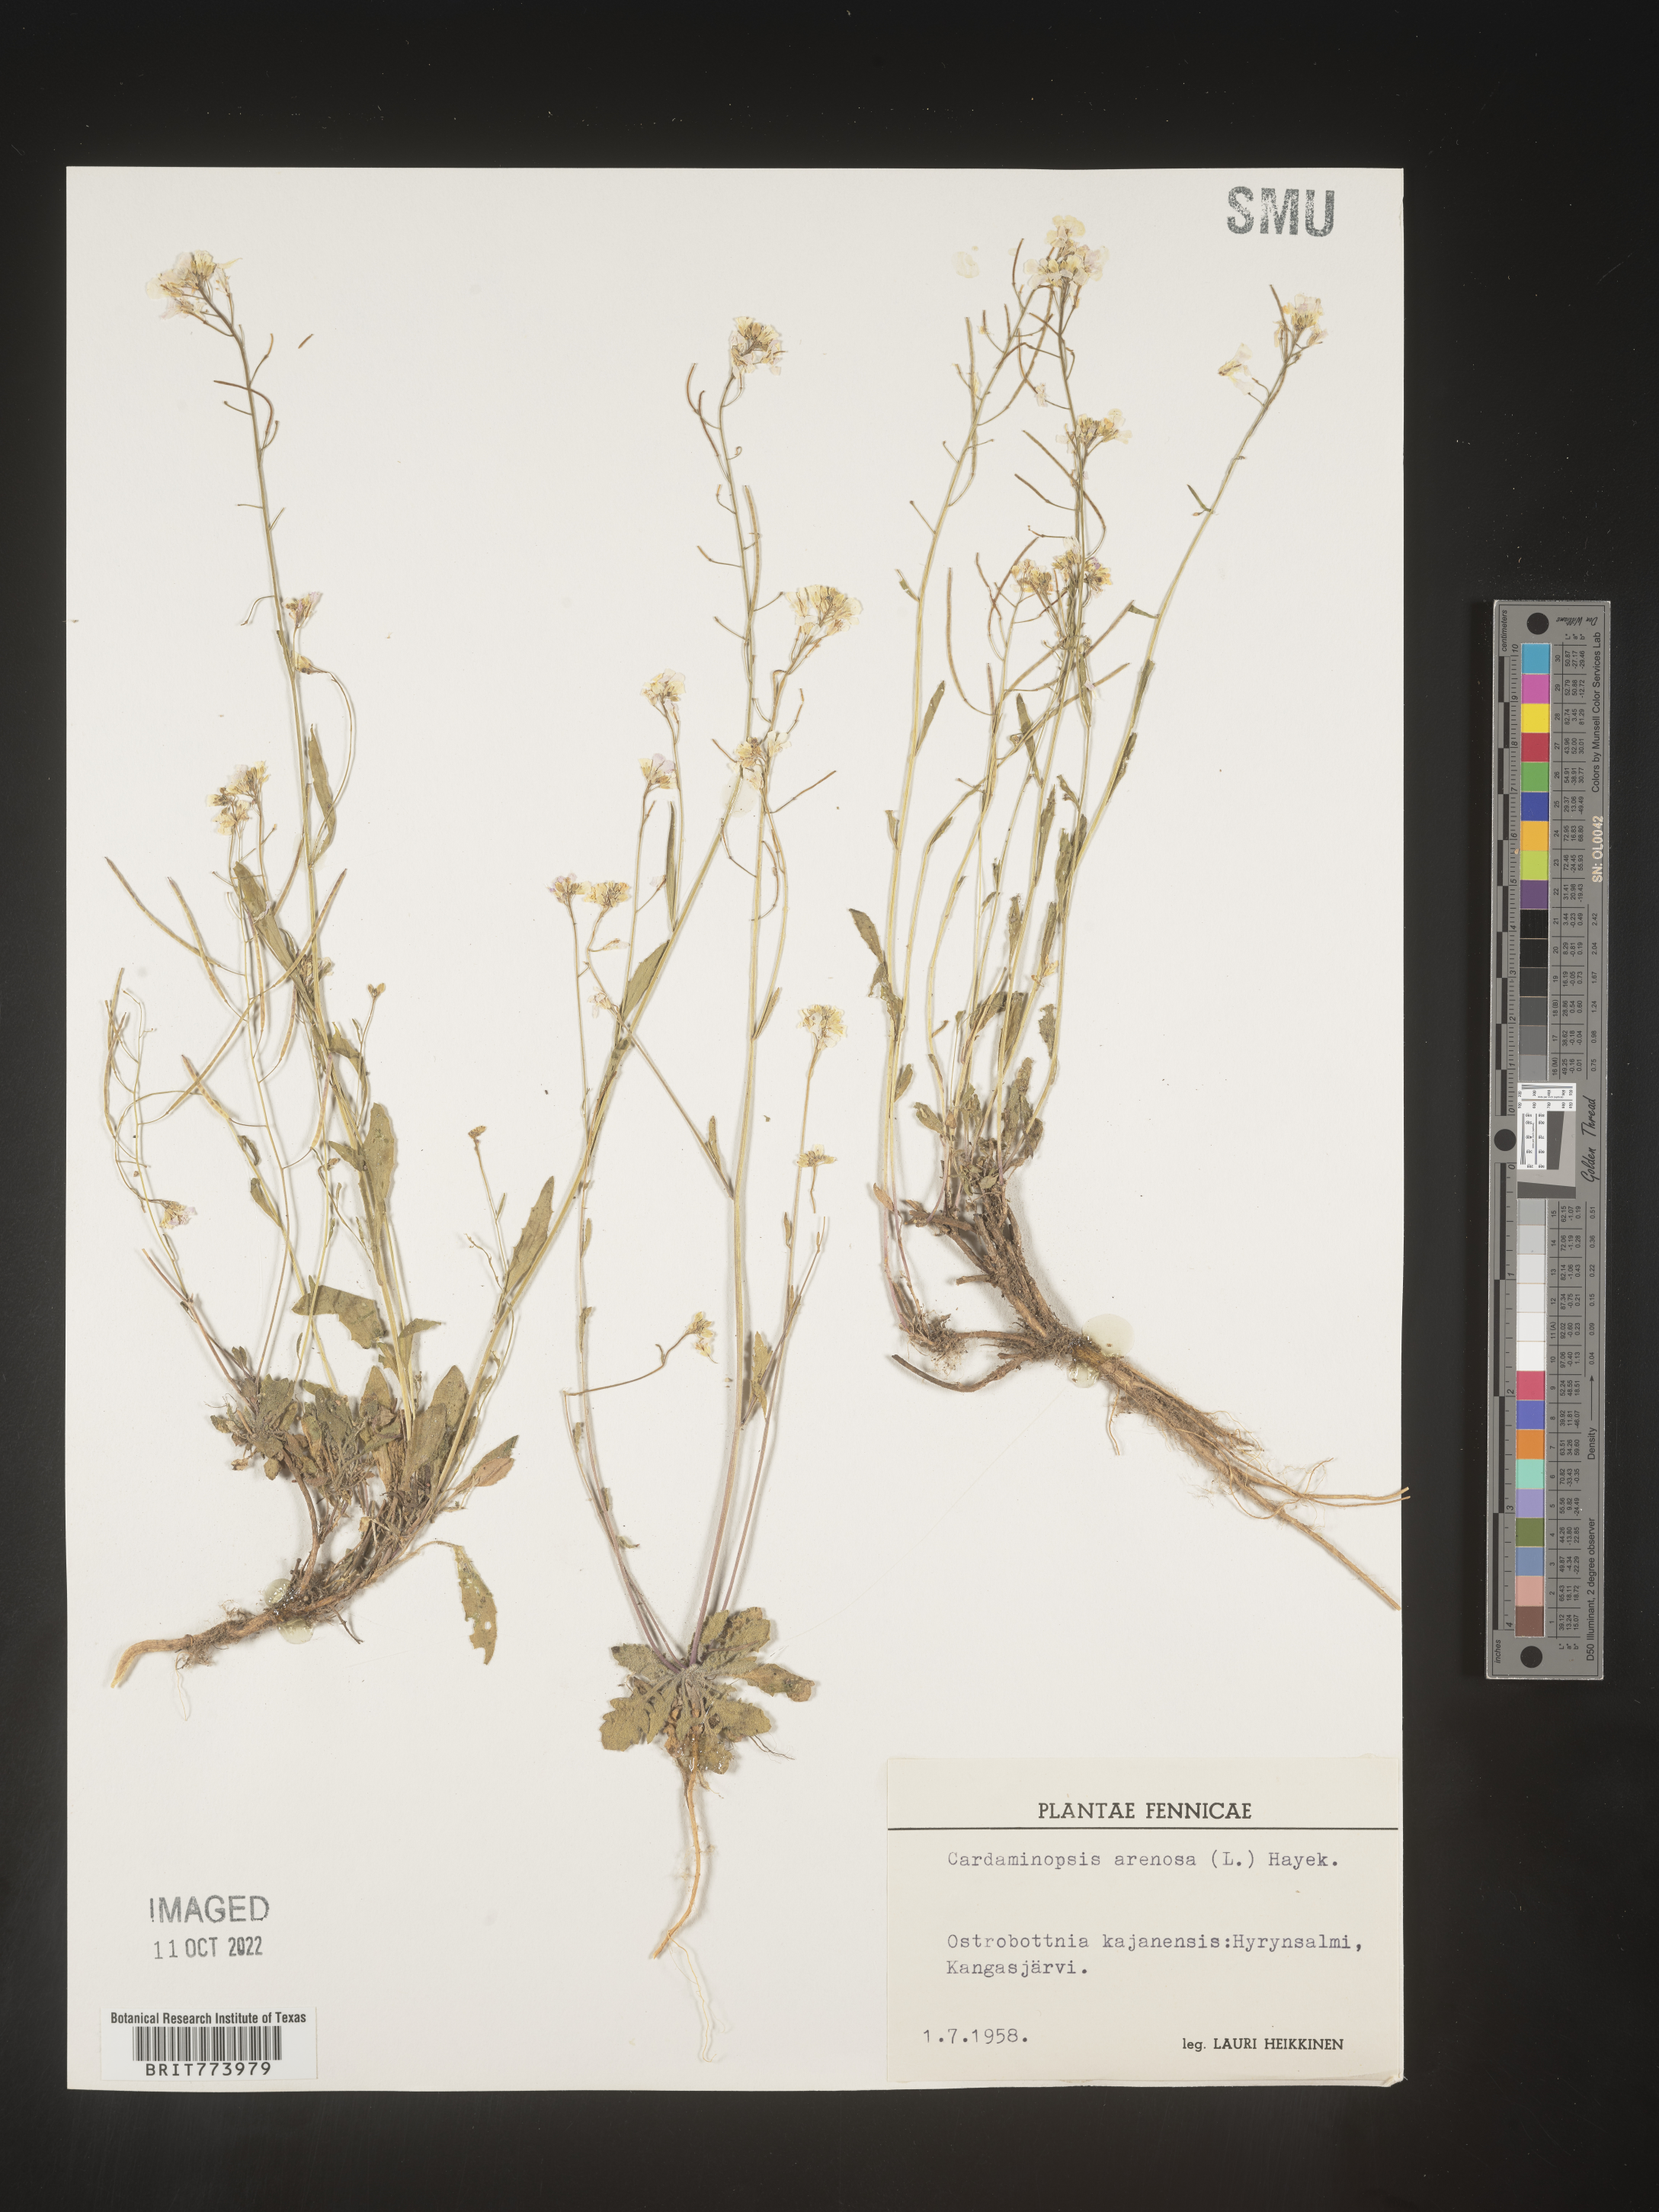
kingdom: Plantae
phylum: Tracheophyta
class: Magnoliopsida
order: Brassicales
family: Brassicaceae
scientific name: Brassicaceae
